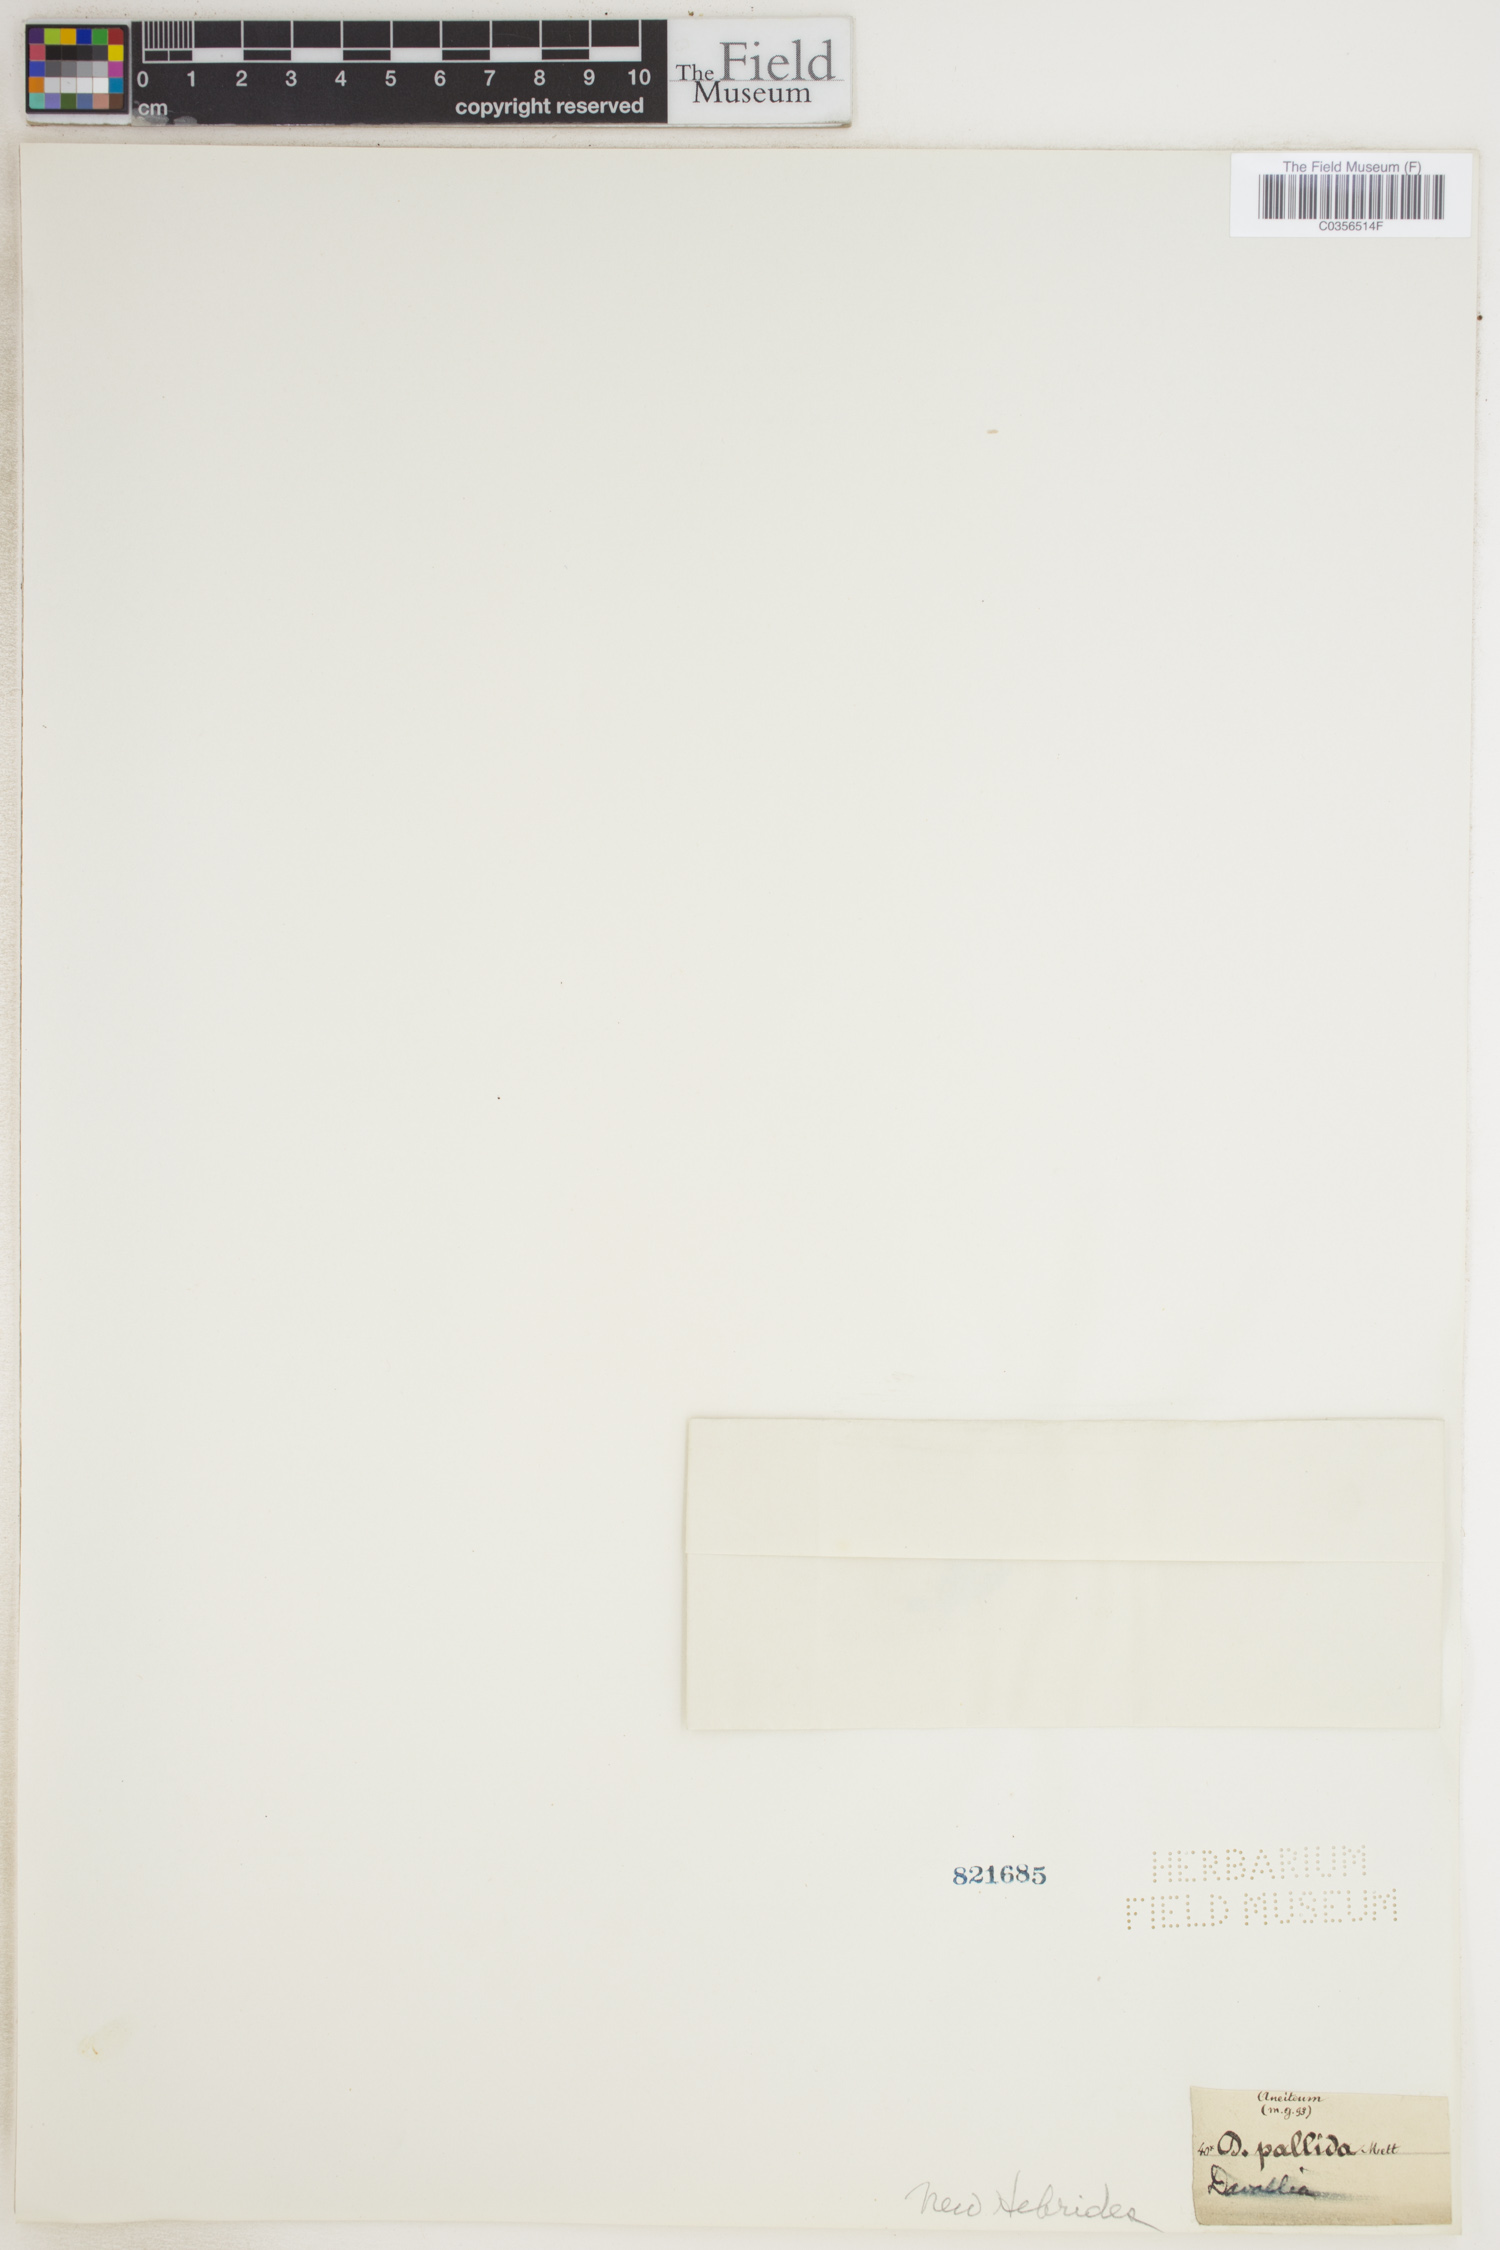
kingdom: Plantae
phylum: Tracheophyta
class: Polypodiopsida
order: Polypodiales
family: Hypodematiaceae
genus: Leucostegia
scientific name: Leucostegia pallida
